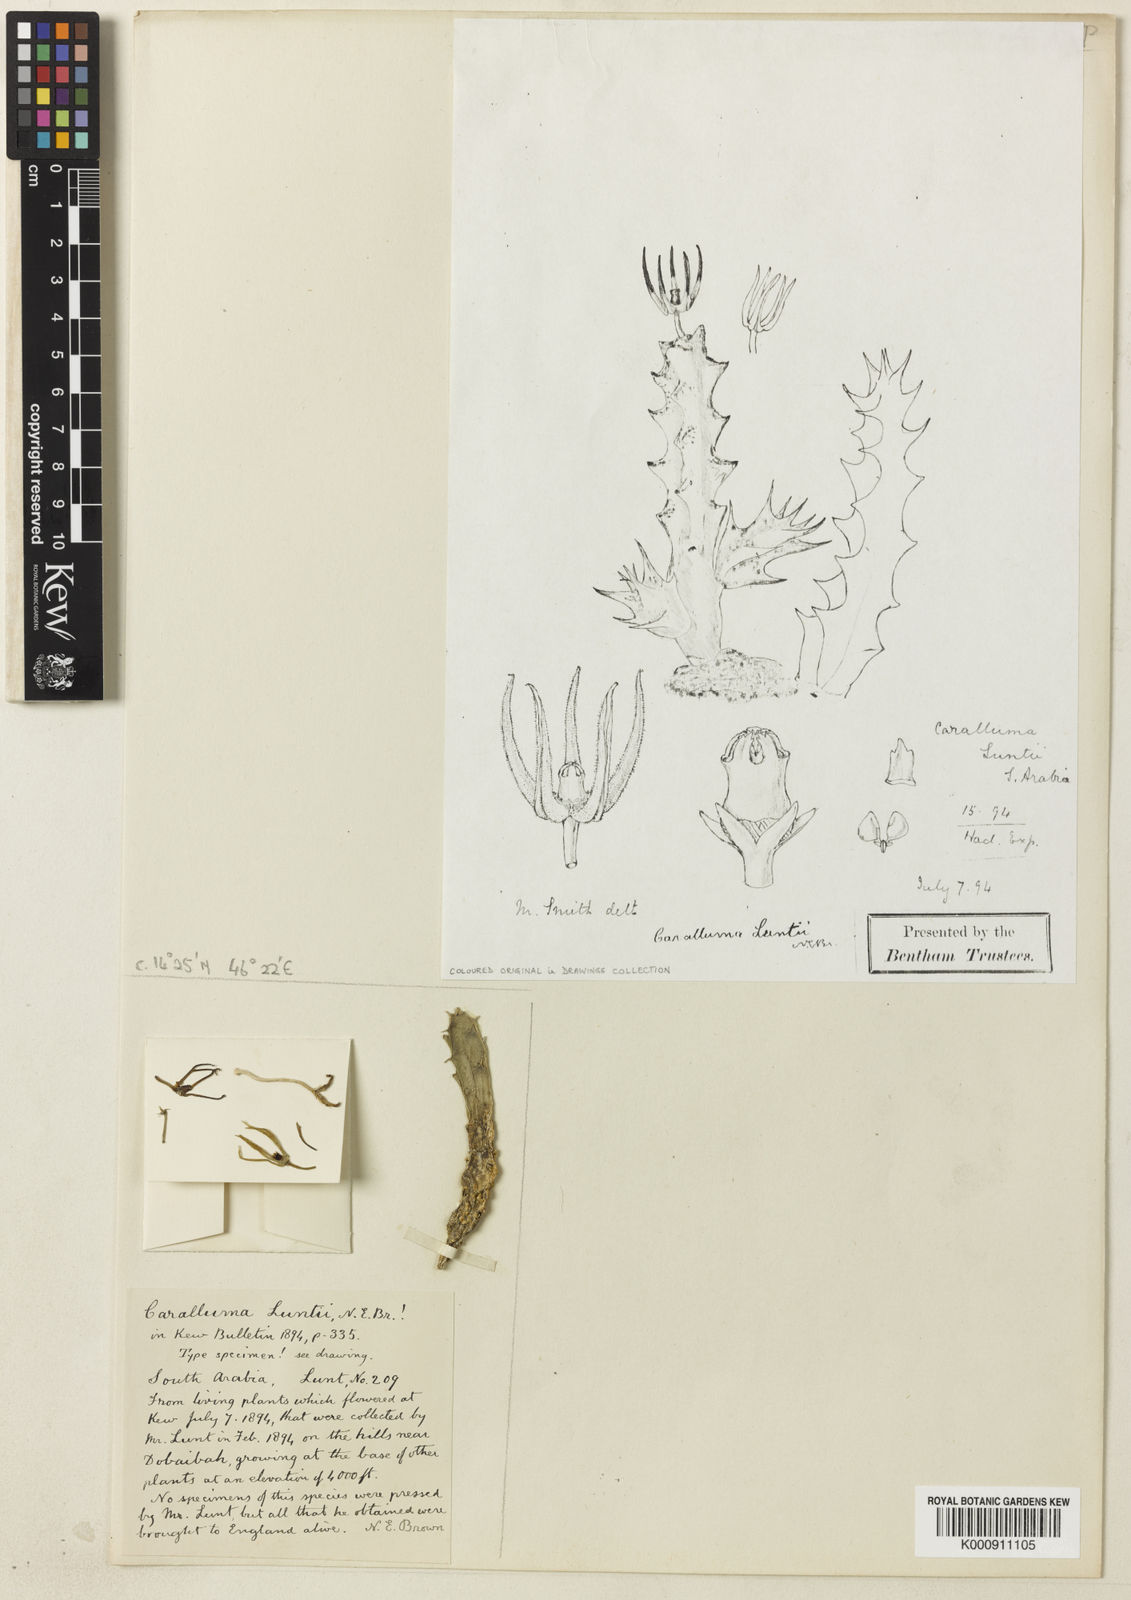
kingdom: Plantae
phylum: Tracheophyta
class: Magnoliopsida
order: Gentianales
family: Apocynaceae
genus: Ceropegia
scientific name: Ceropegia luntii
